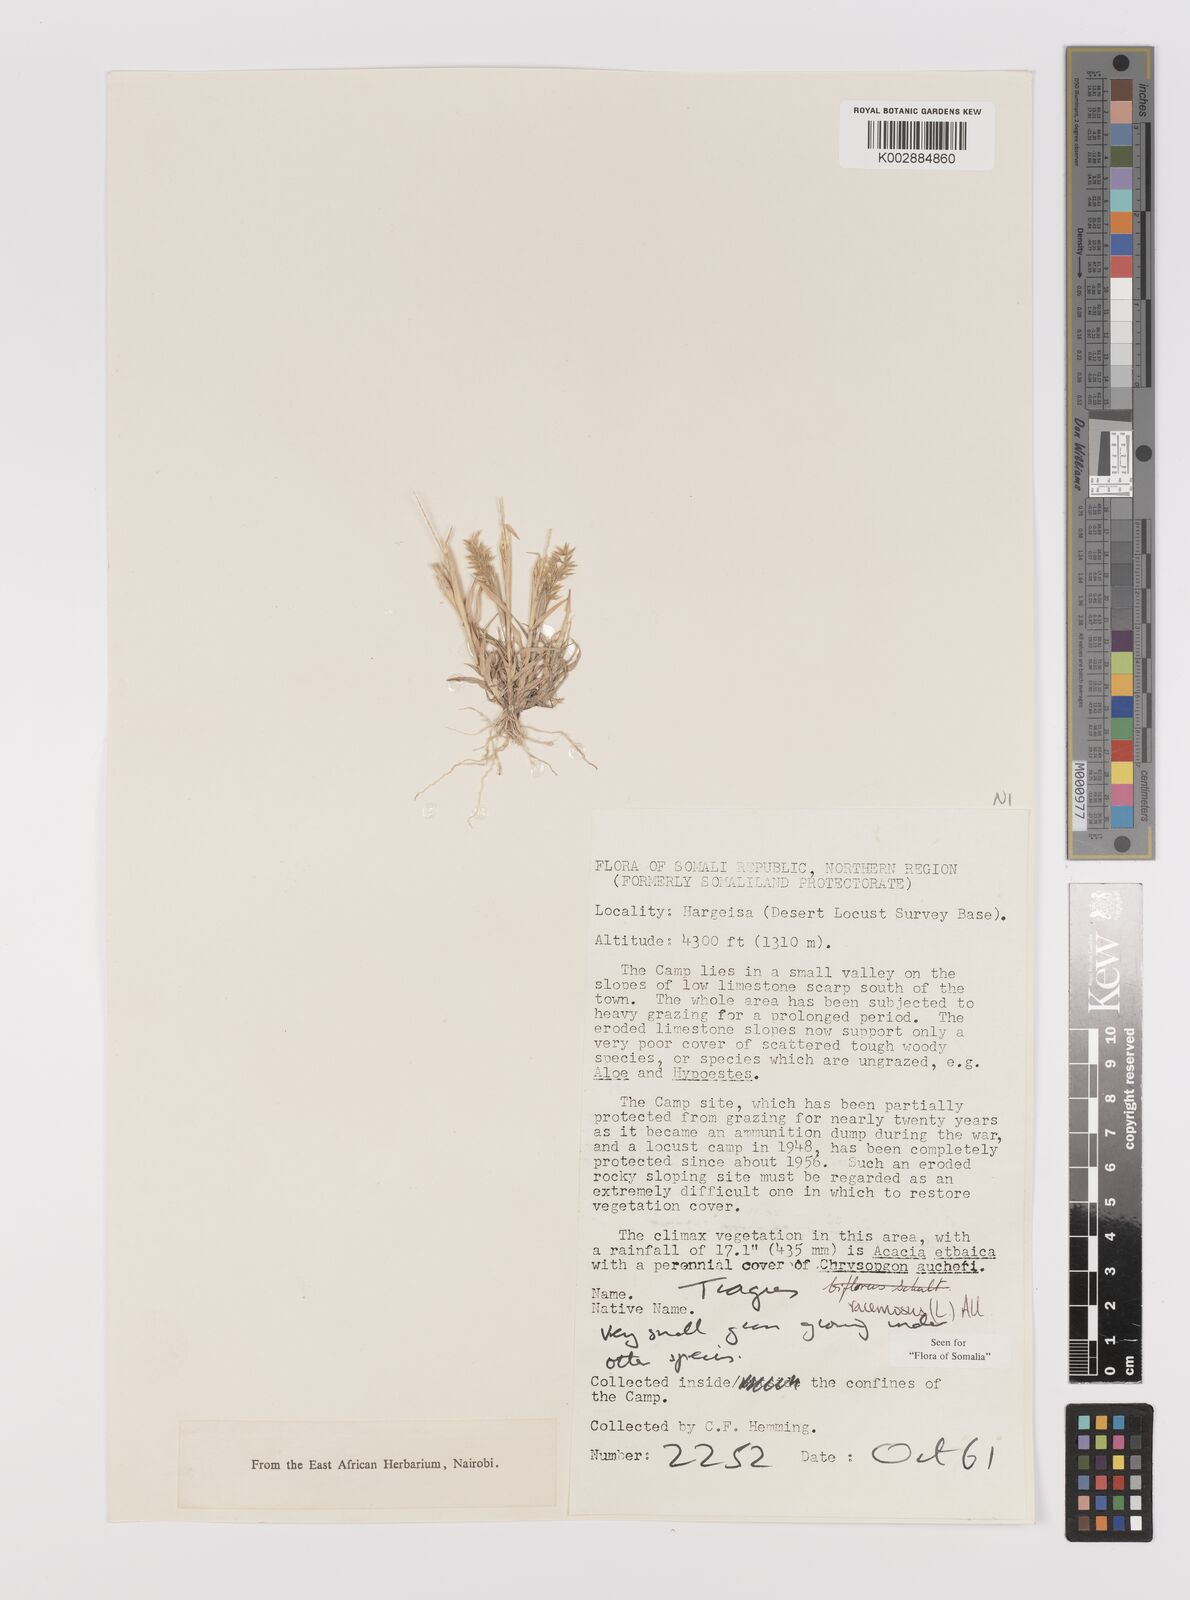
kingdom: Plantae
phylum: Tracheophyta
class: Liliopsida
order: Poales
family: Poaceae
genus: Tragus
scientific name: Tragus racemosus
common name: European bur-grass
